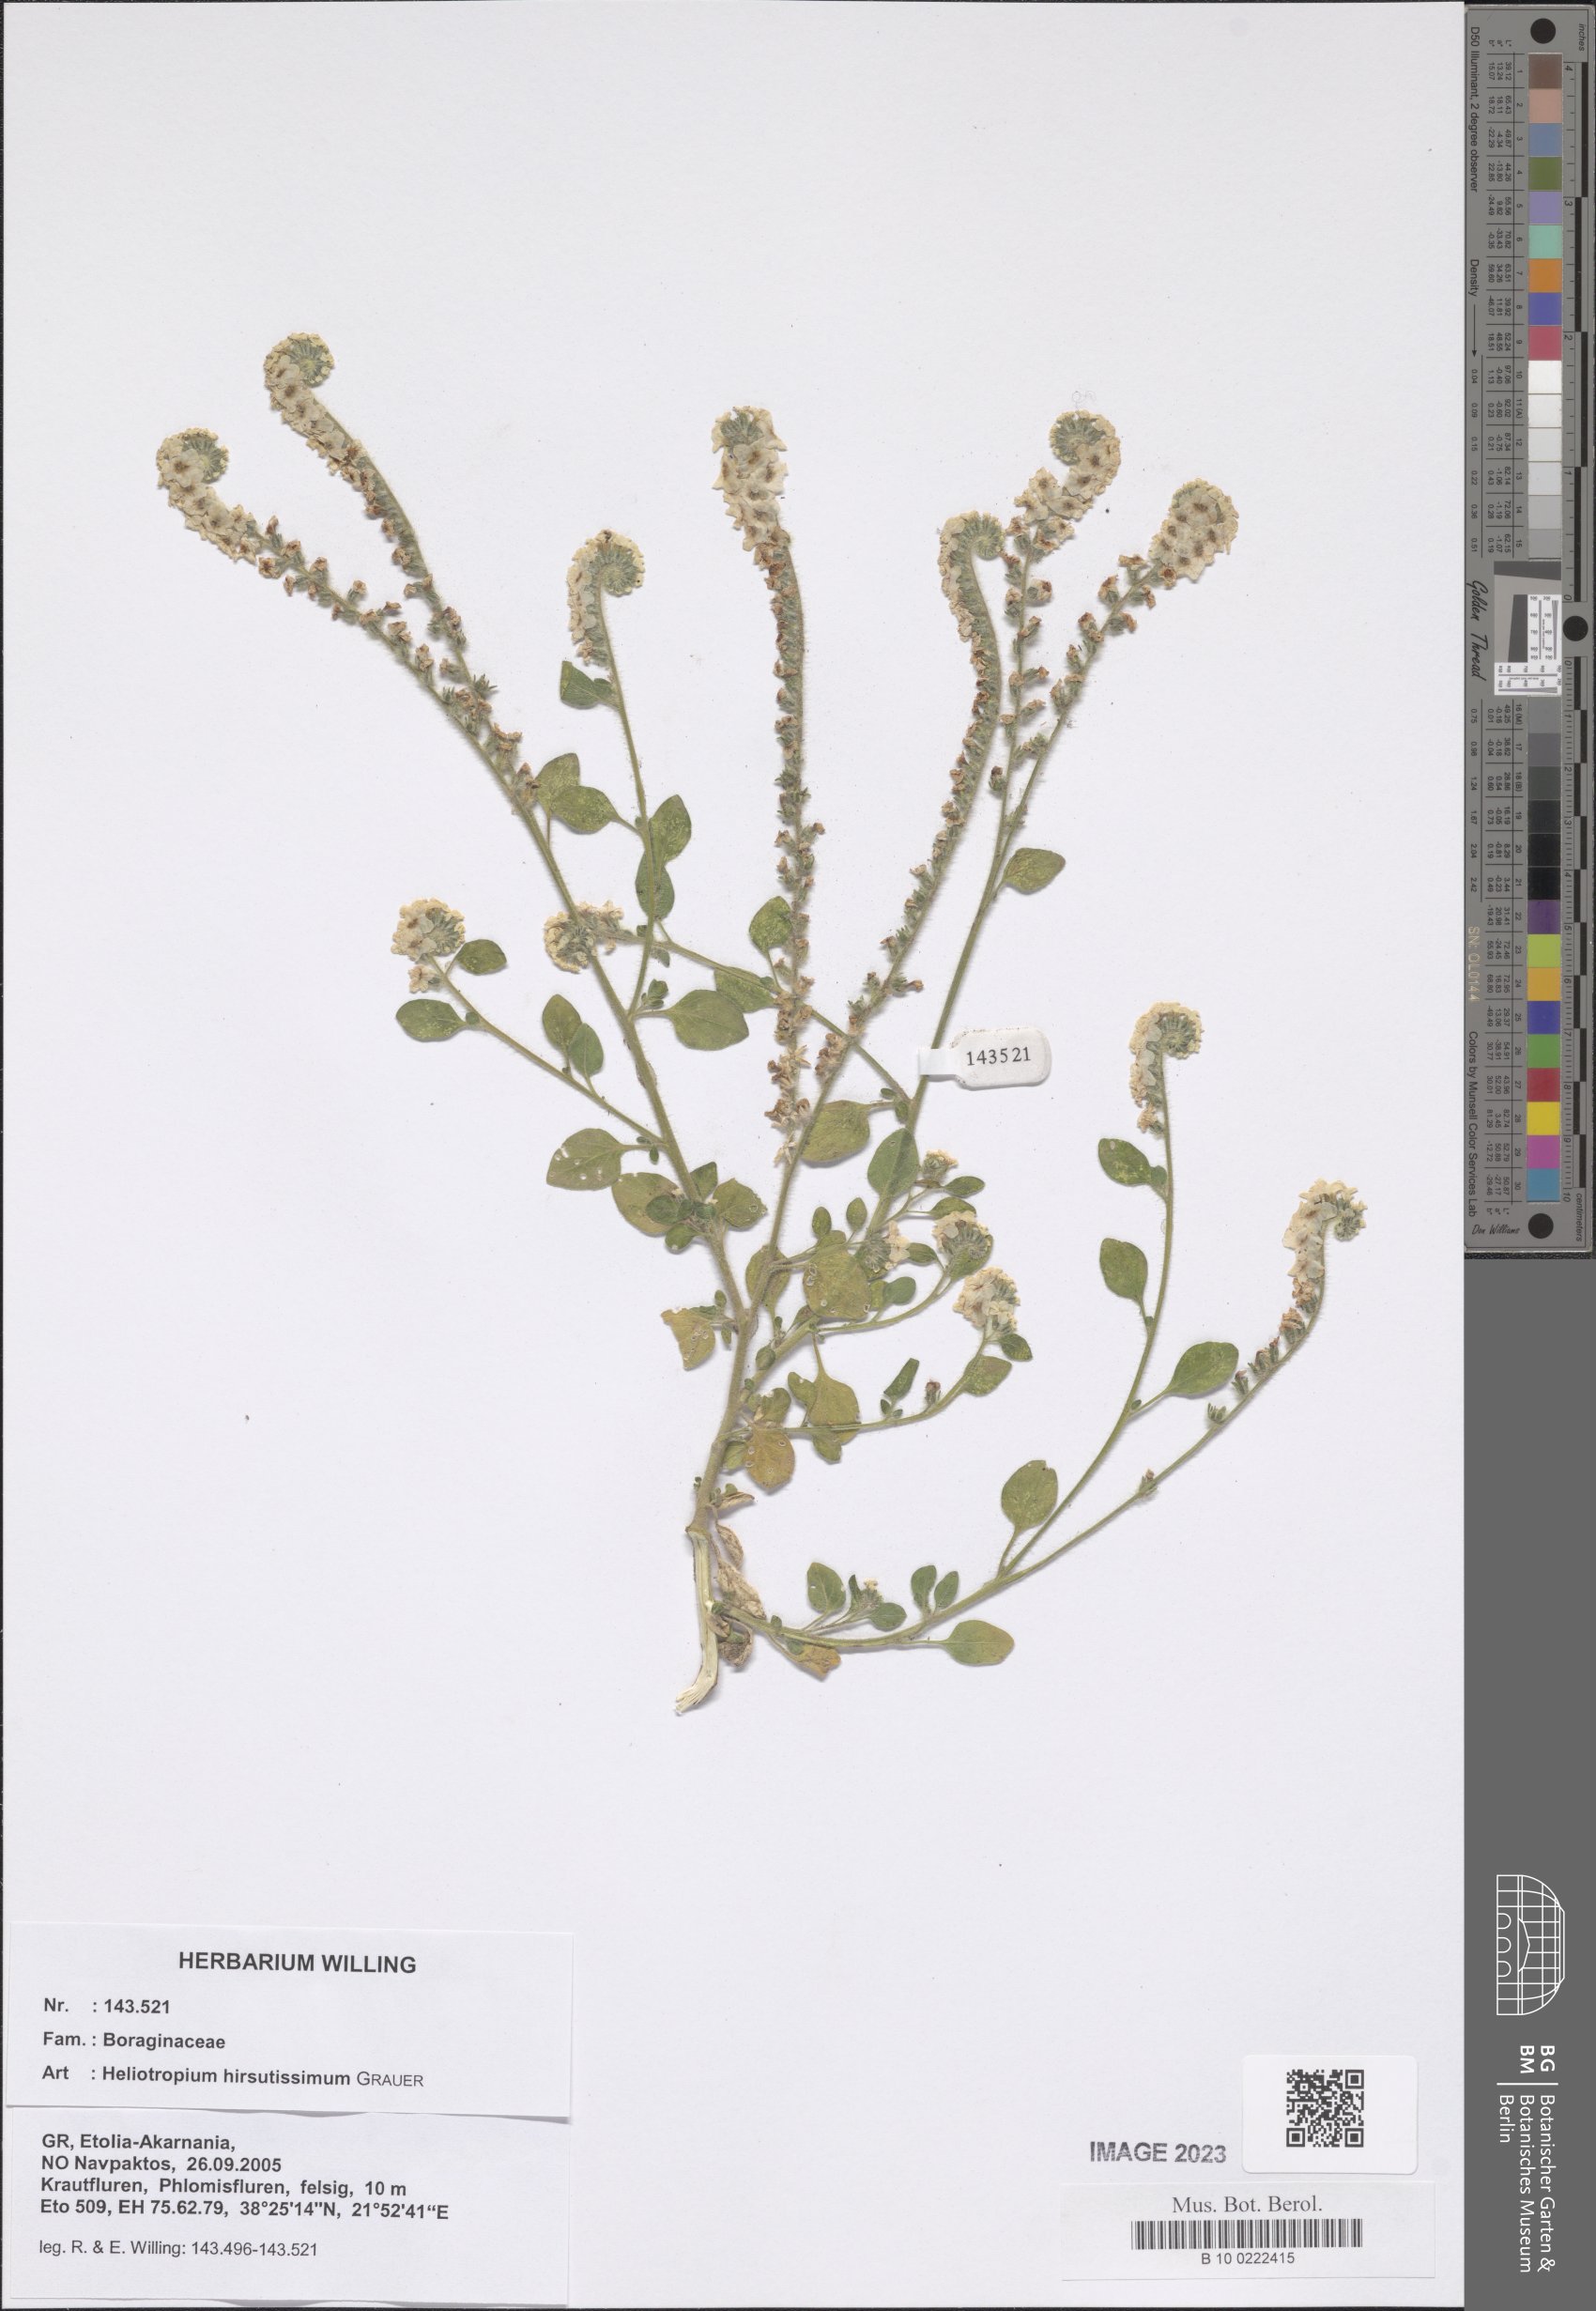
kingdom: Plantae
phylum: Tracheophyta
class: Magnoliopsida
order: Boraginales
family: Heliotropiaceae
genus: Heliotropium
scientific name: Heliotropium hirsutissimum
